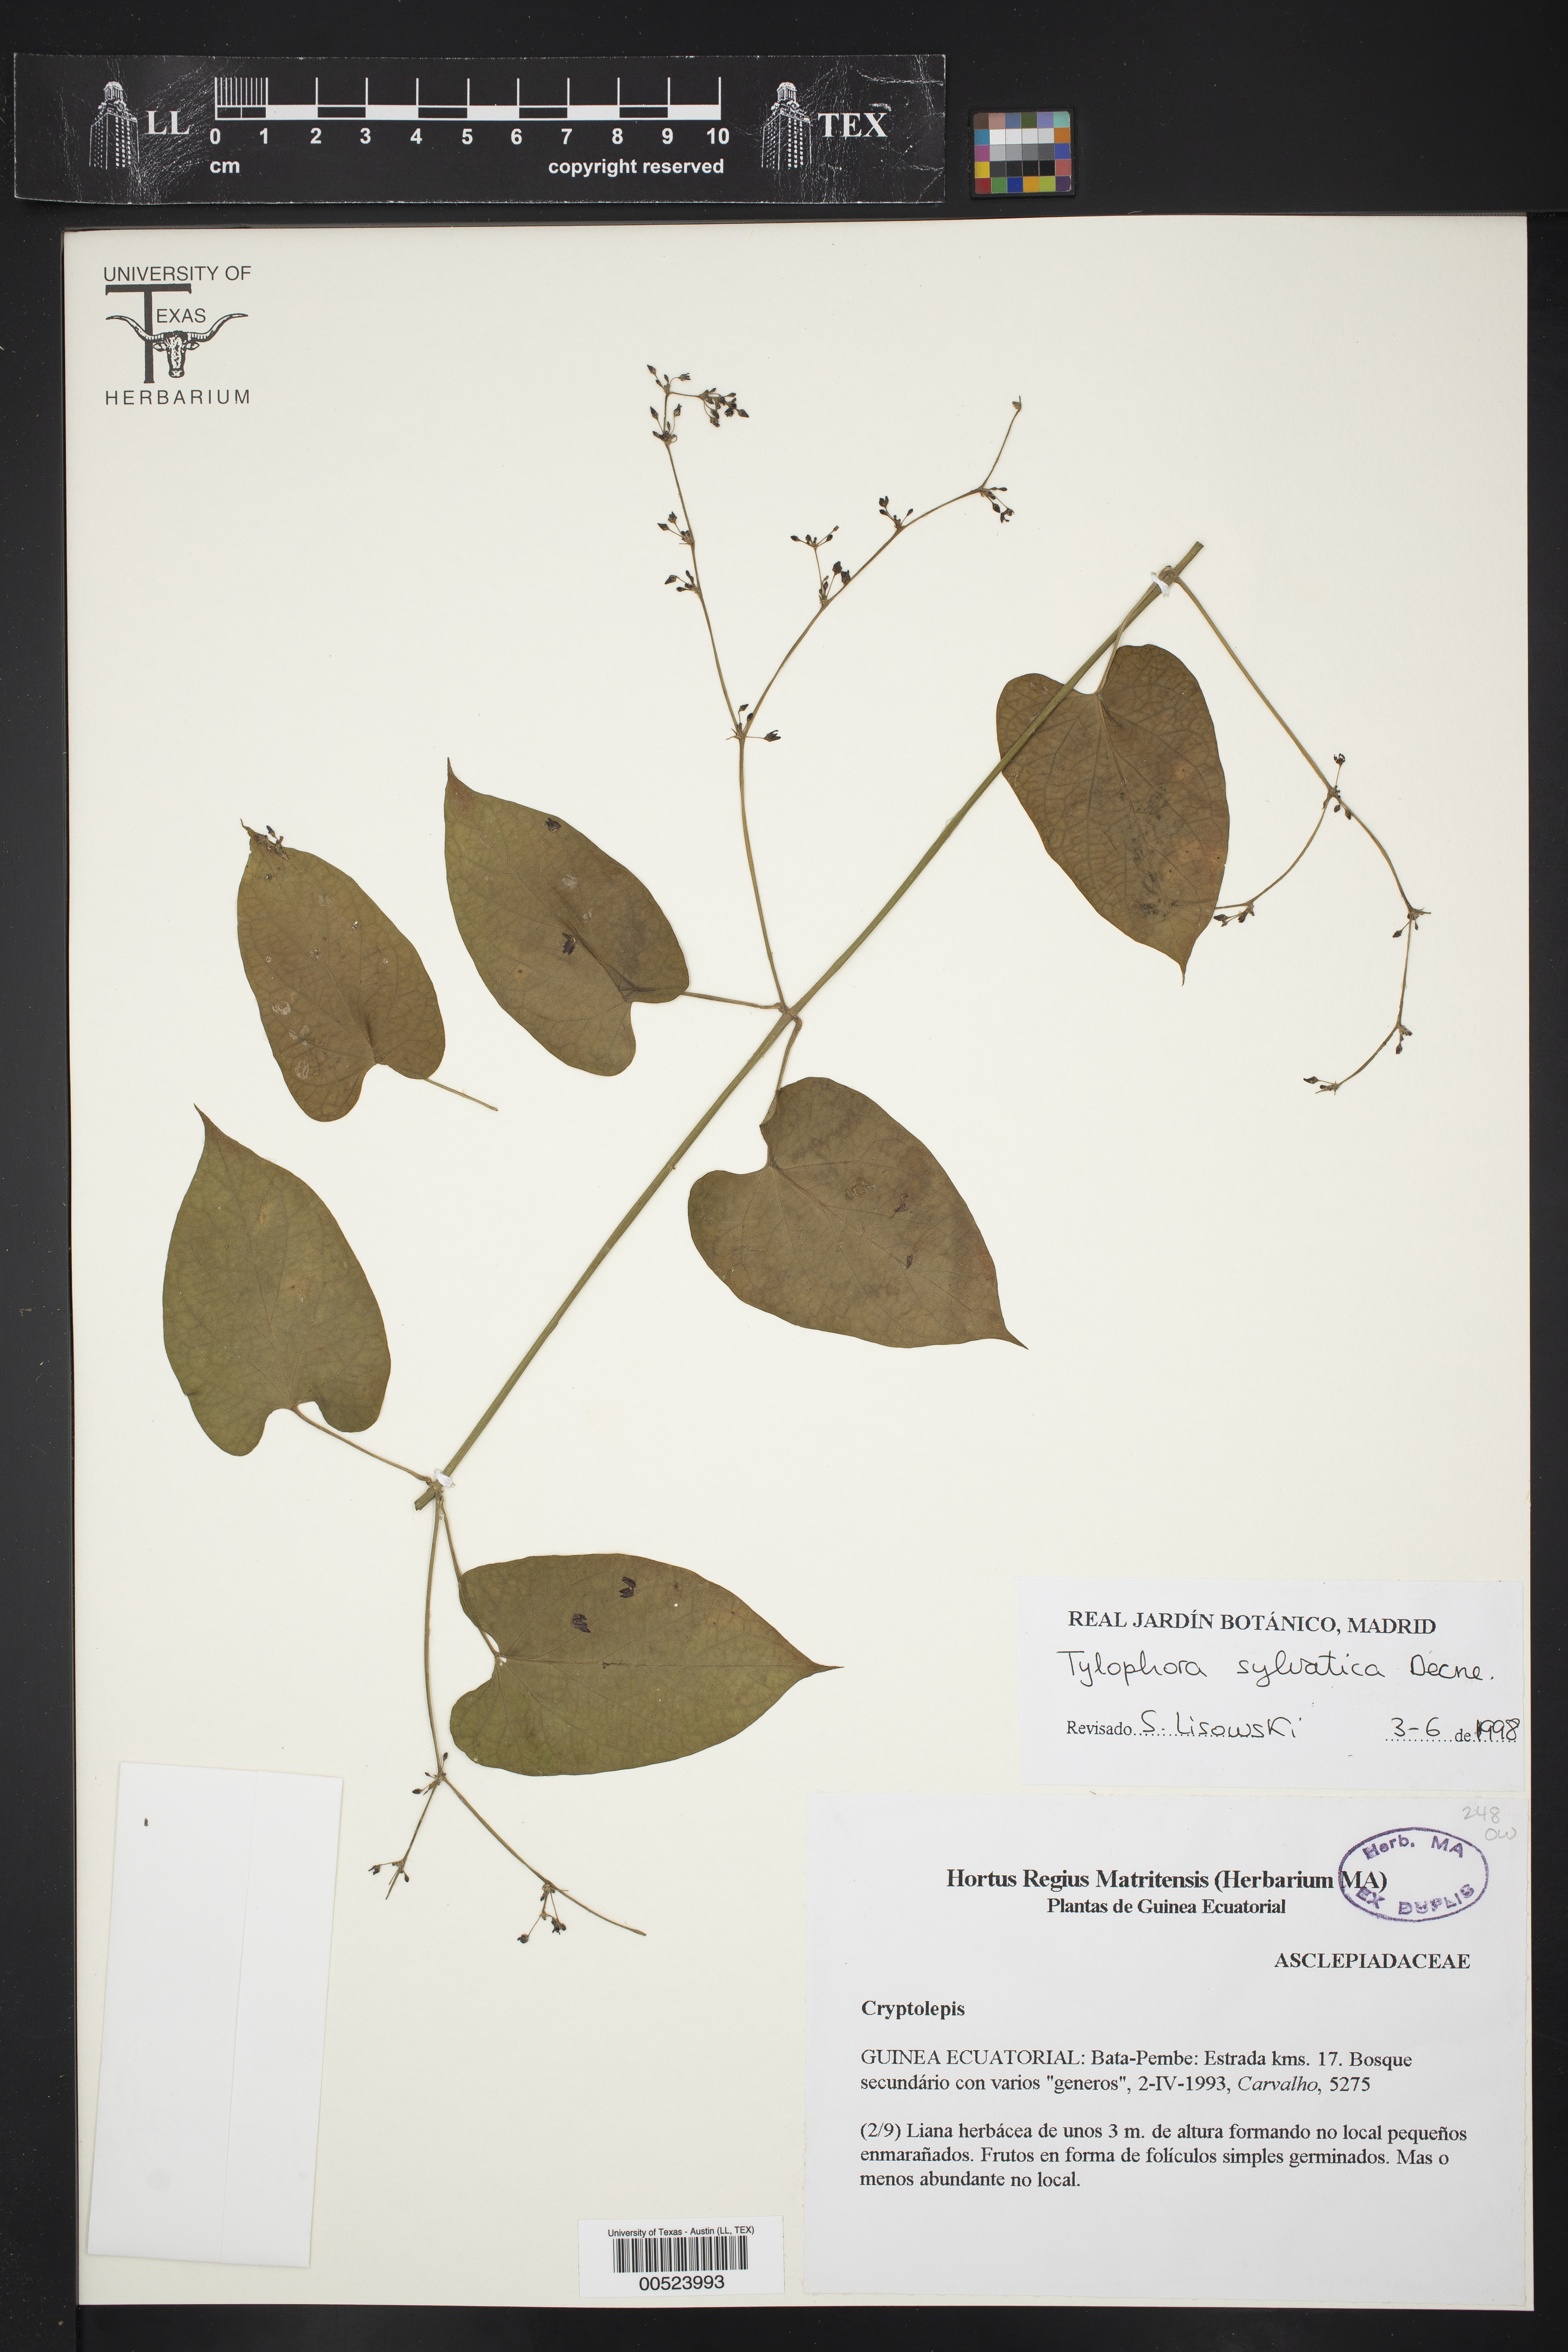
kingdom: Plantae
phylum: Tracheophyta
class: Magnoliopsida
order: Gentianales
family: Apocynaceae
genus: Vincetoxicum
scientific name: Vincetoxicum sylvaticum
